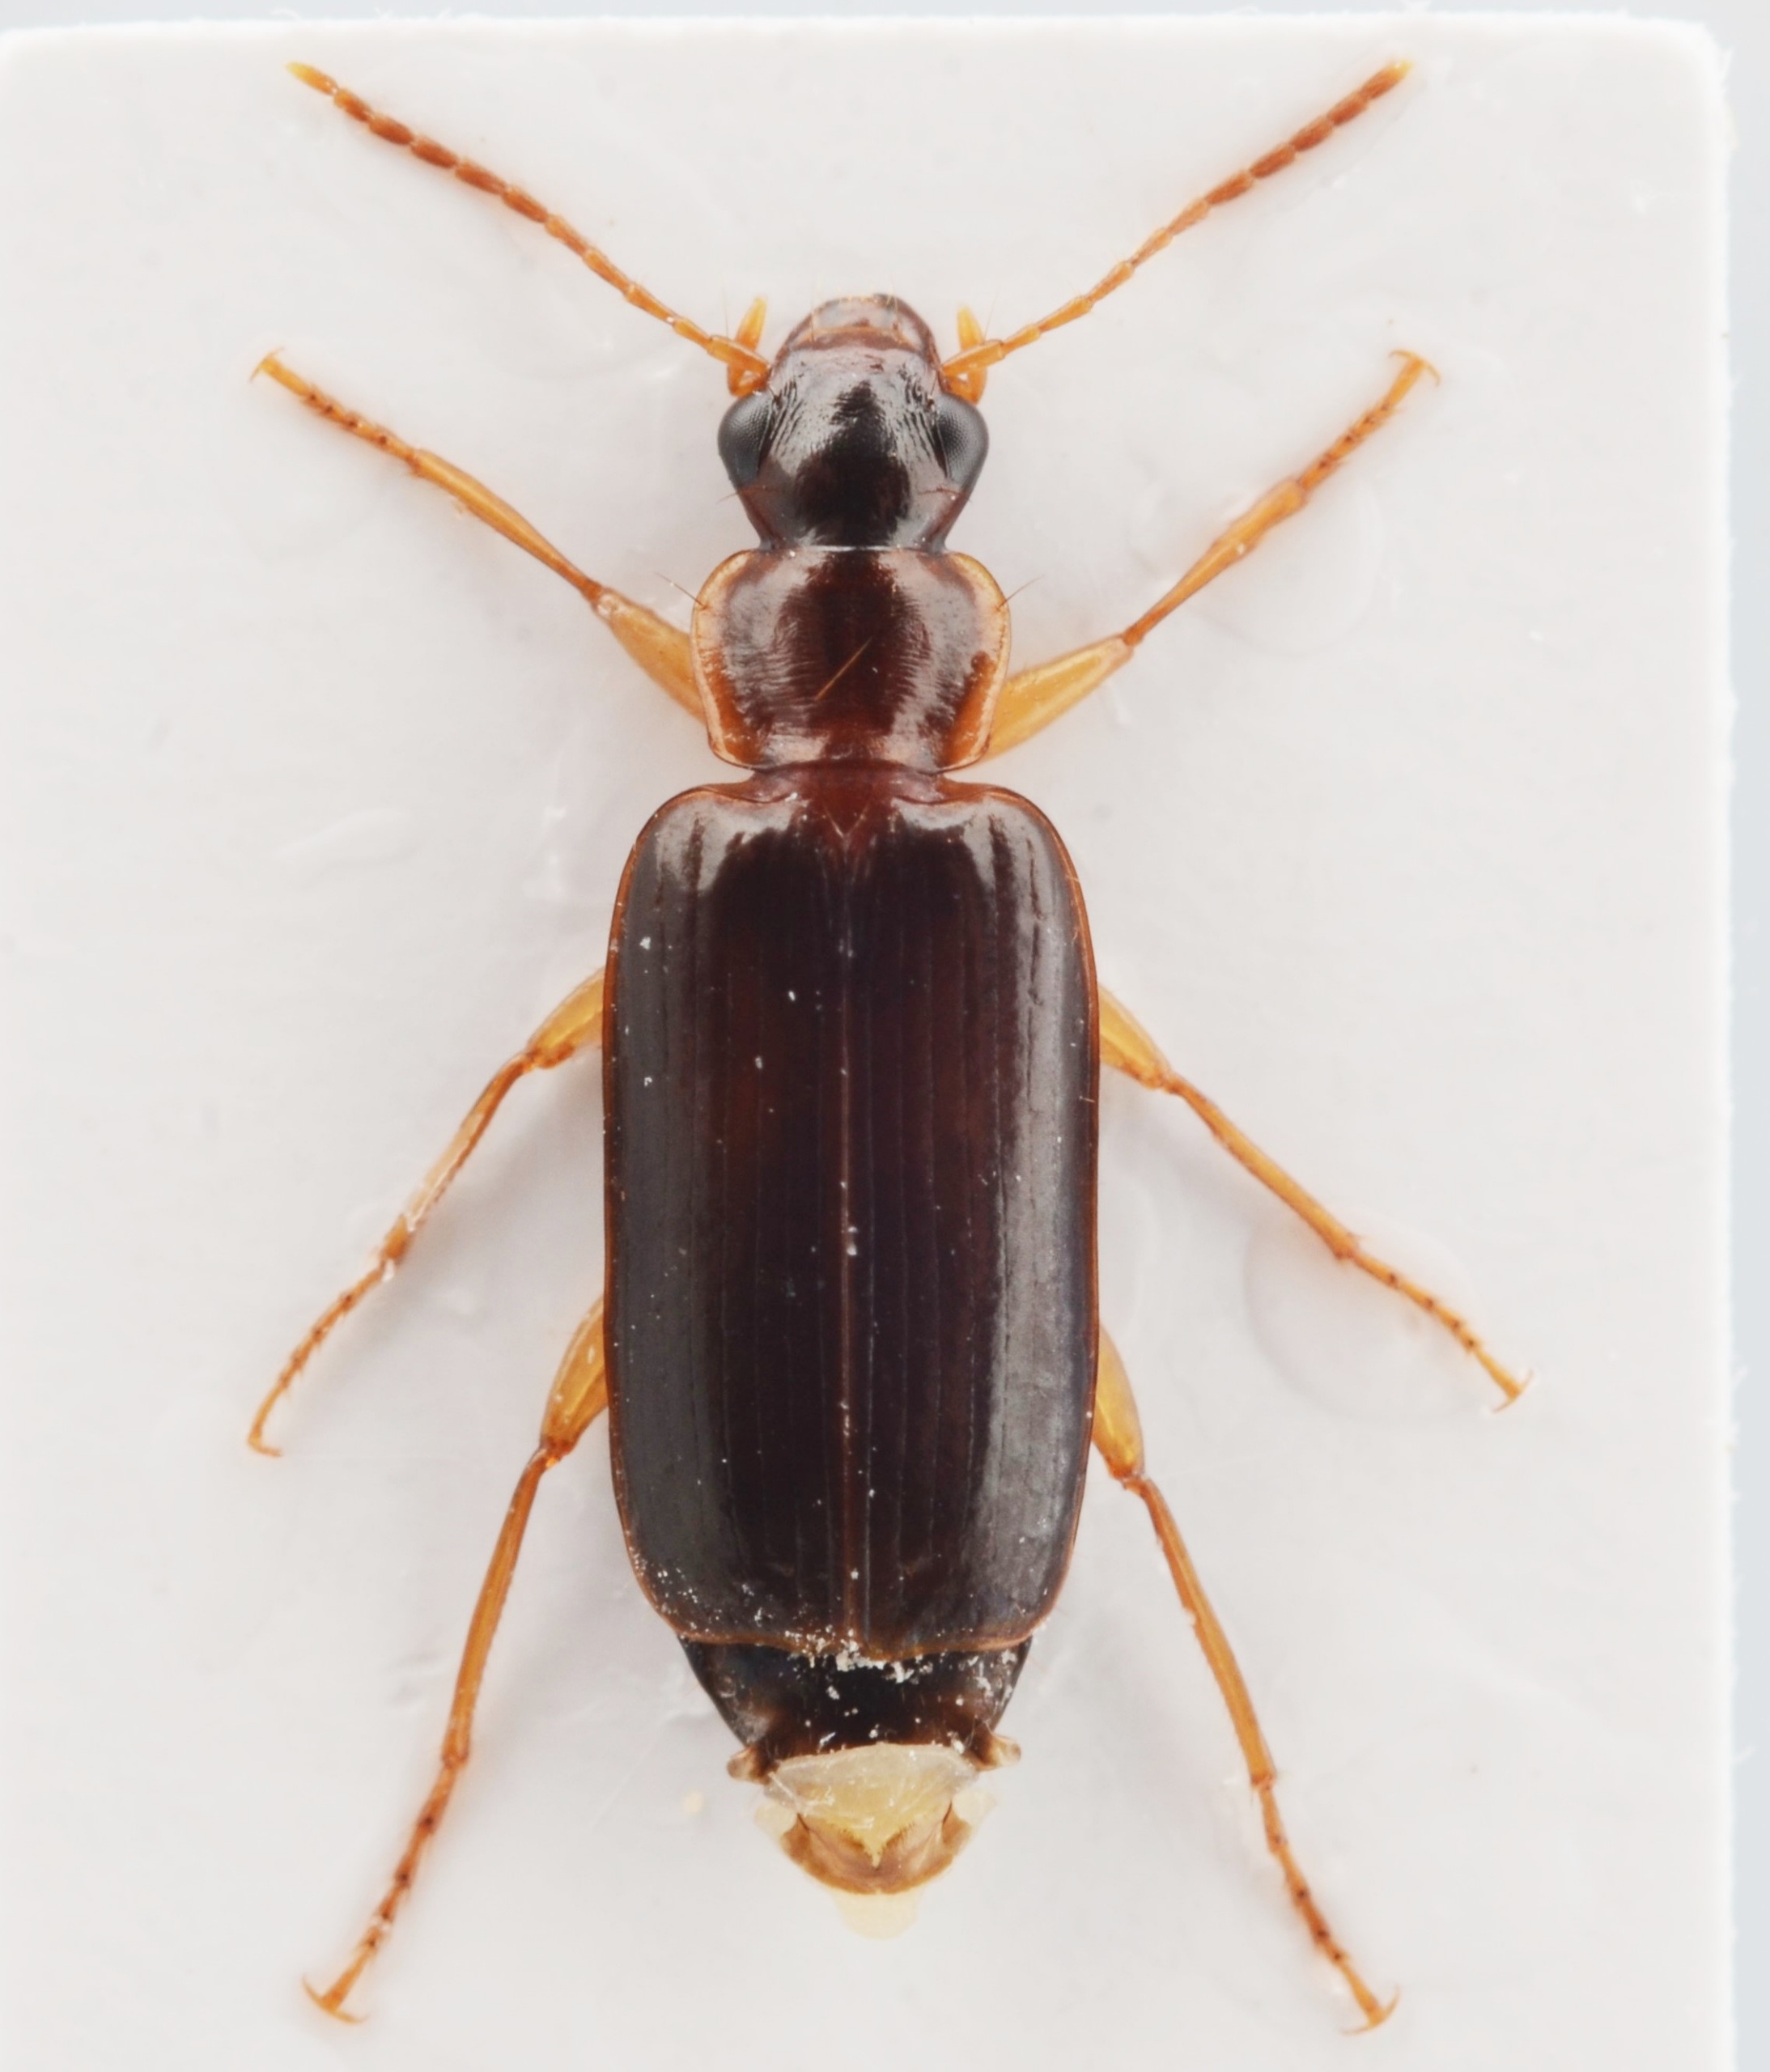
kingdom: Animalia
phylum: Arthropoda
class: Insecta
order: Coleoptera
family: Carabidae
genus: Dromius
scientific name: Dromius meridionalis
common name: Parallel barkløber
